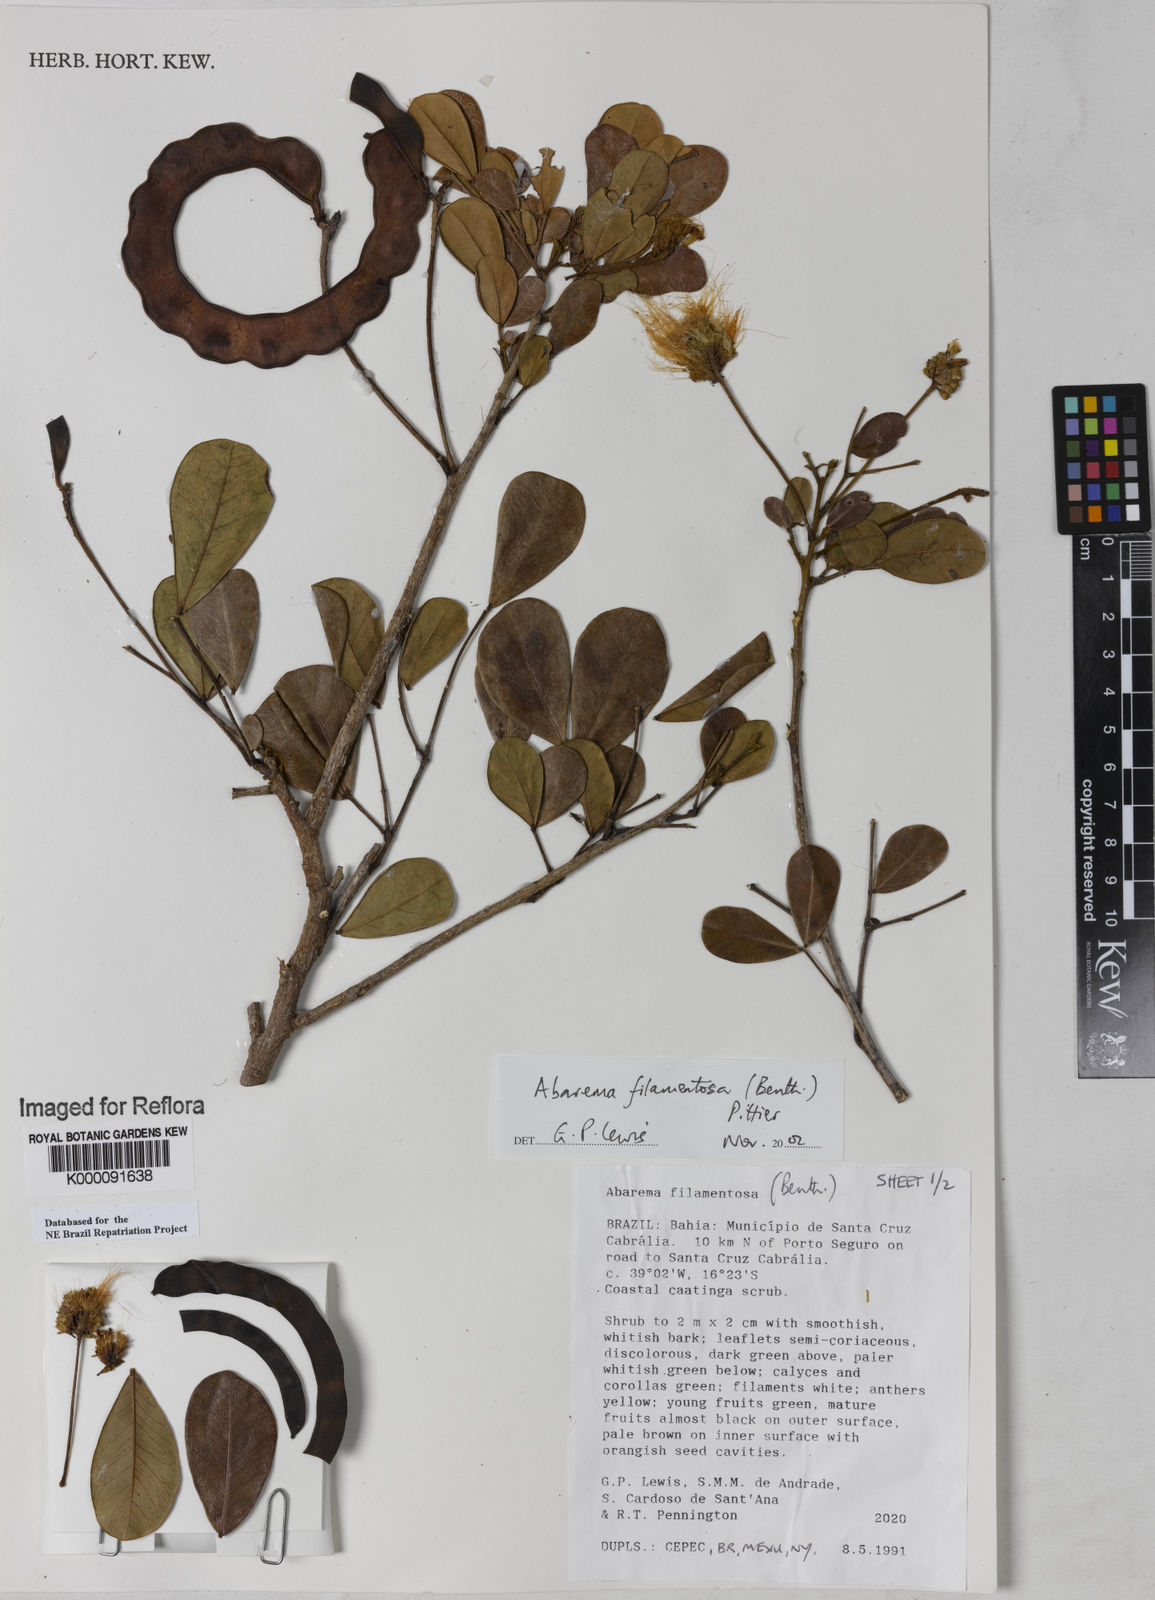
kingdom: Plantae
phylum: Tracheophyta
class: Magnoliopsida
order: Fabales
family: Fabaceae
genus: Jupunba
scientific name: Jupunba filamentosa
